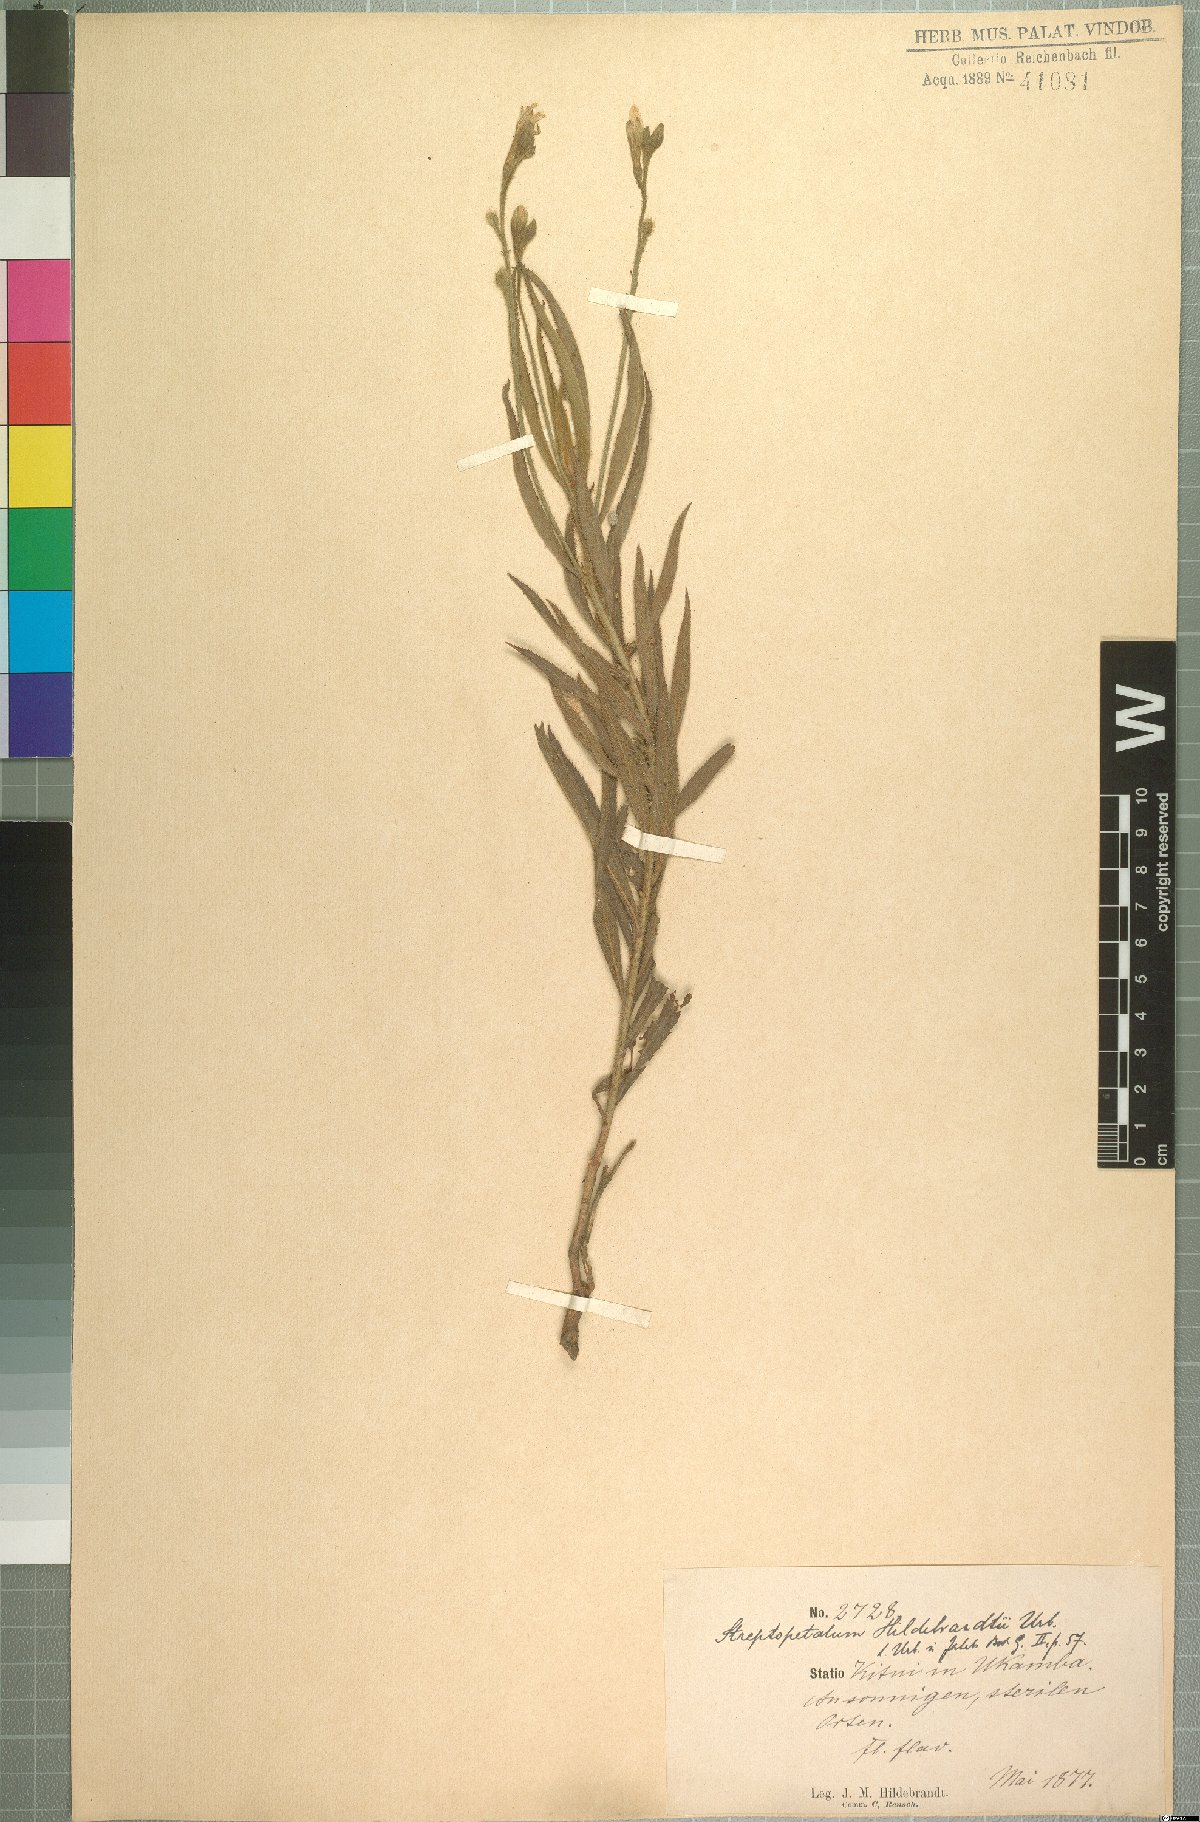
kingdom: Plantae
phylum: Tracheophyta
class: Magnoliopsida
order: Malpighiales
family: Turneraceae
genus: Streptopetalum
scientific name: Streptopetalum hildebrandtii
